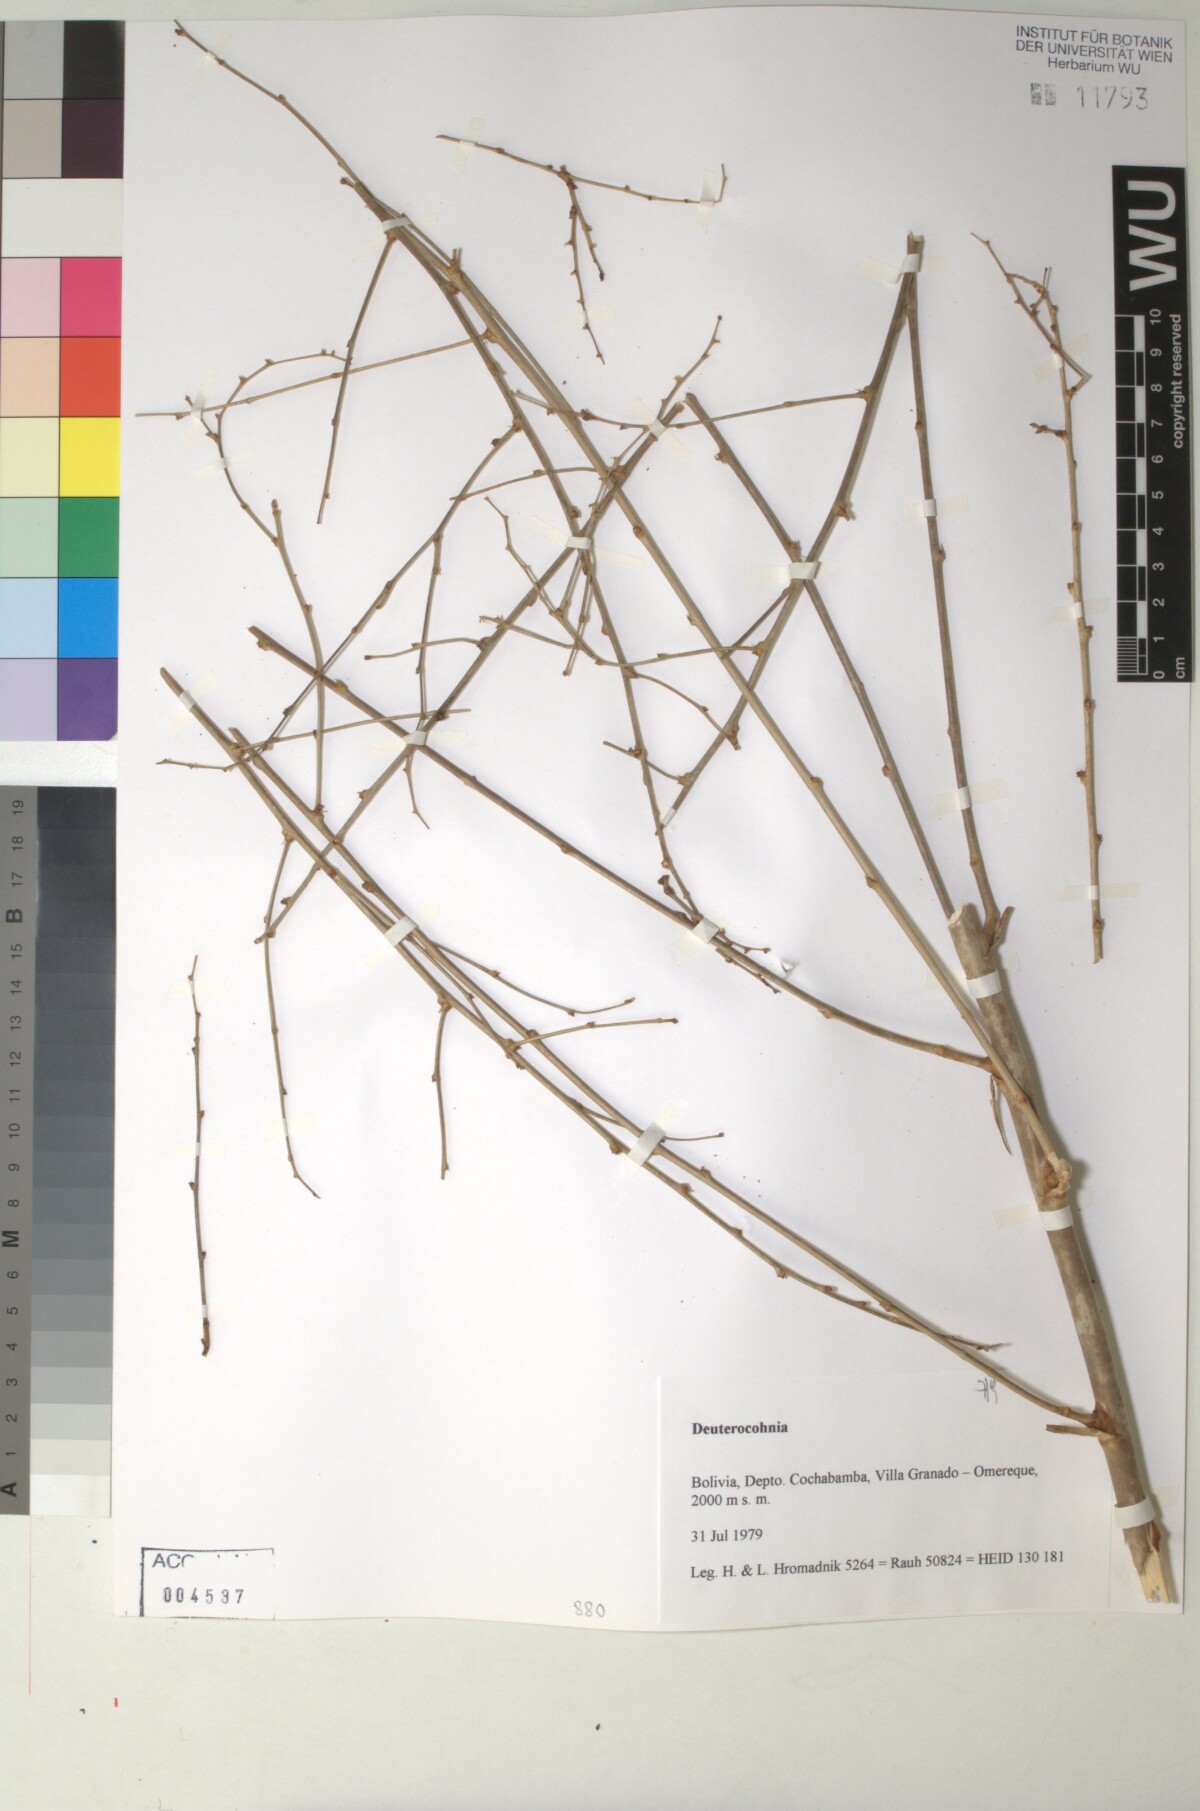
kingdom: Plantae
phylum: Tracheophyta
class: Liliopsida
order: Poales
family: Bromeliaceae
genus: Deuterocohnia
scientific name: Deuterocohnia meziana
